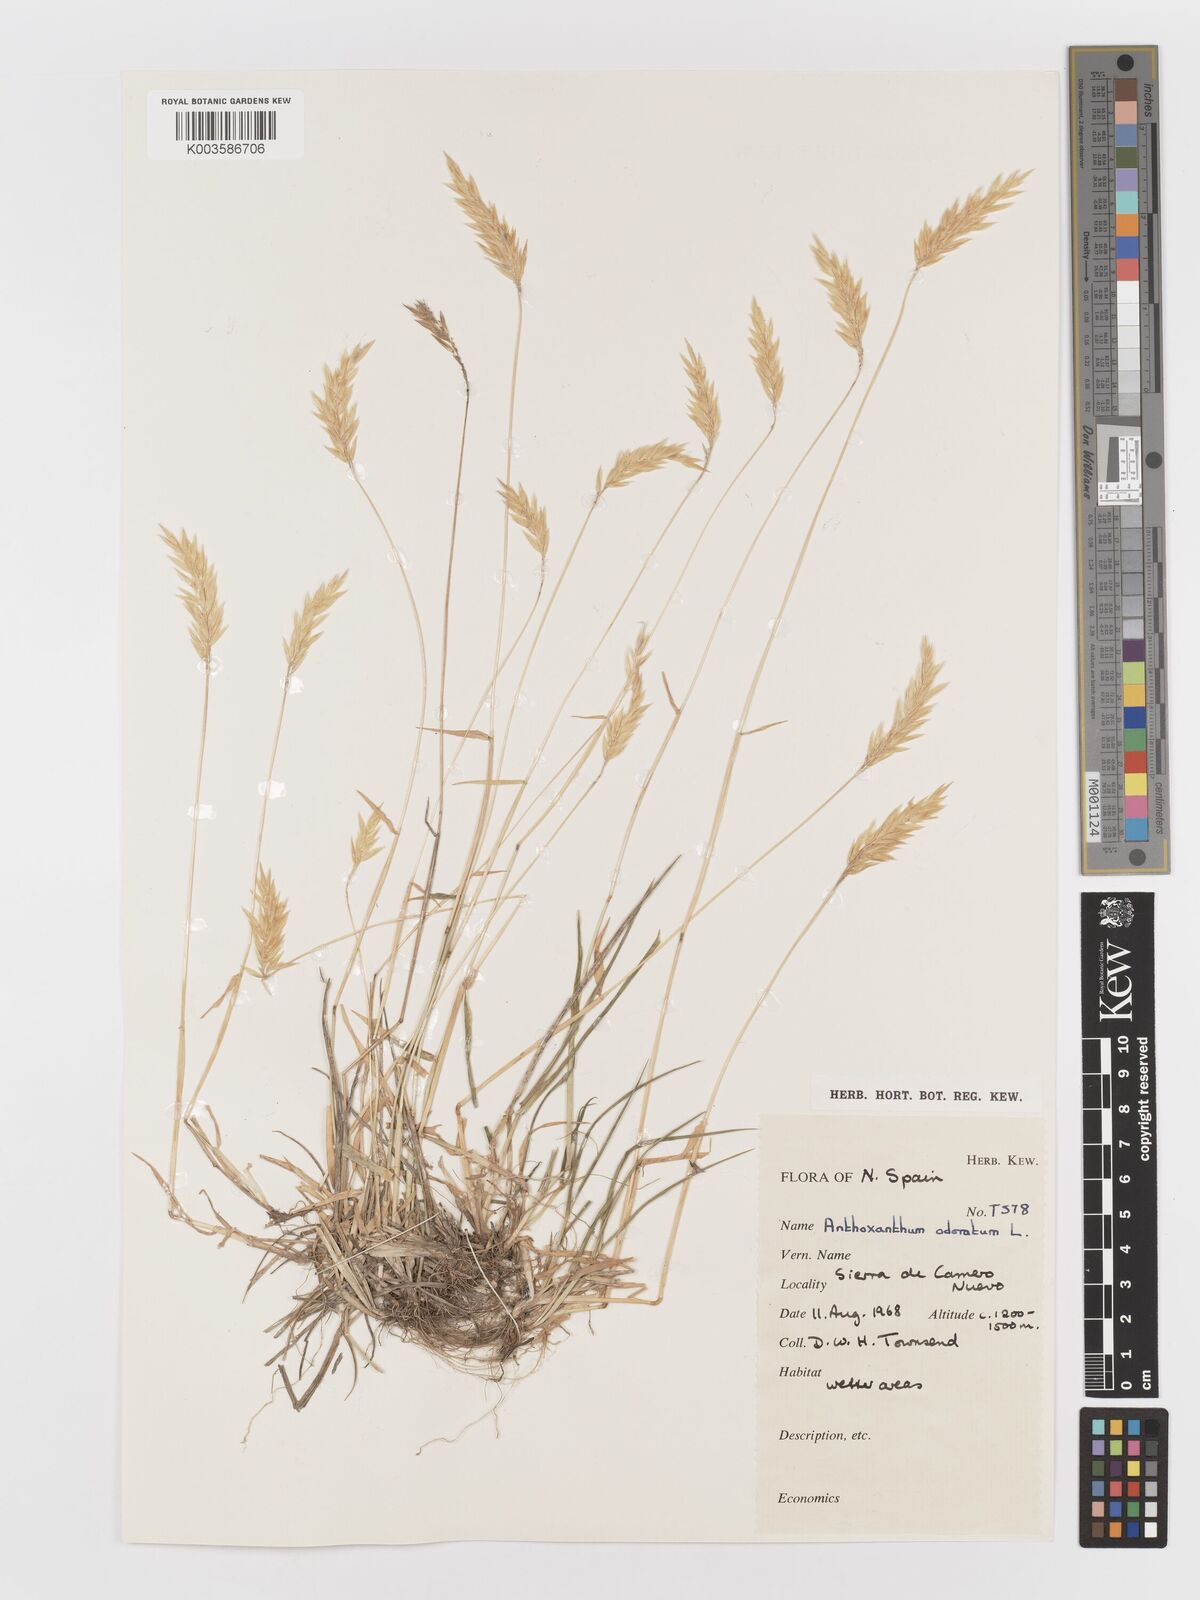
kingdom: Plantae
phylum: Tracheophyta
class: Liliopsida
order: Poales
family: Poaceae
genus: Anthoxanthum
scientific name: Anthoxanthum odoratum
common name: Sweet vernalgrass
